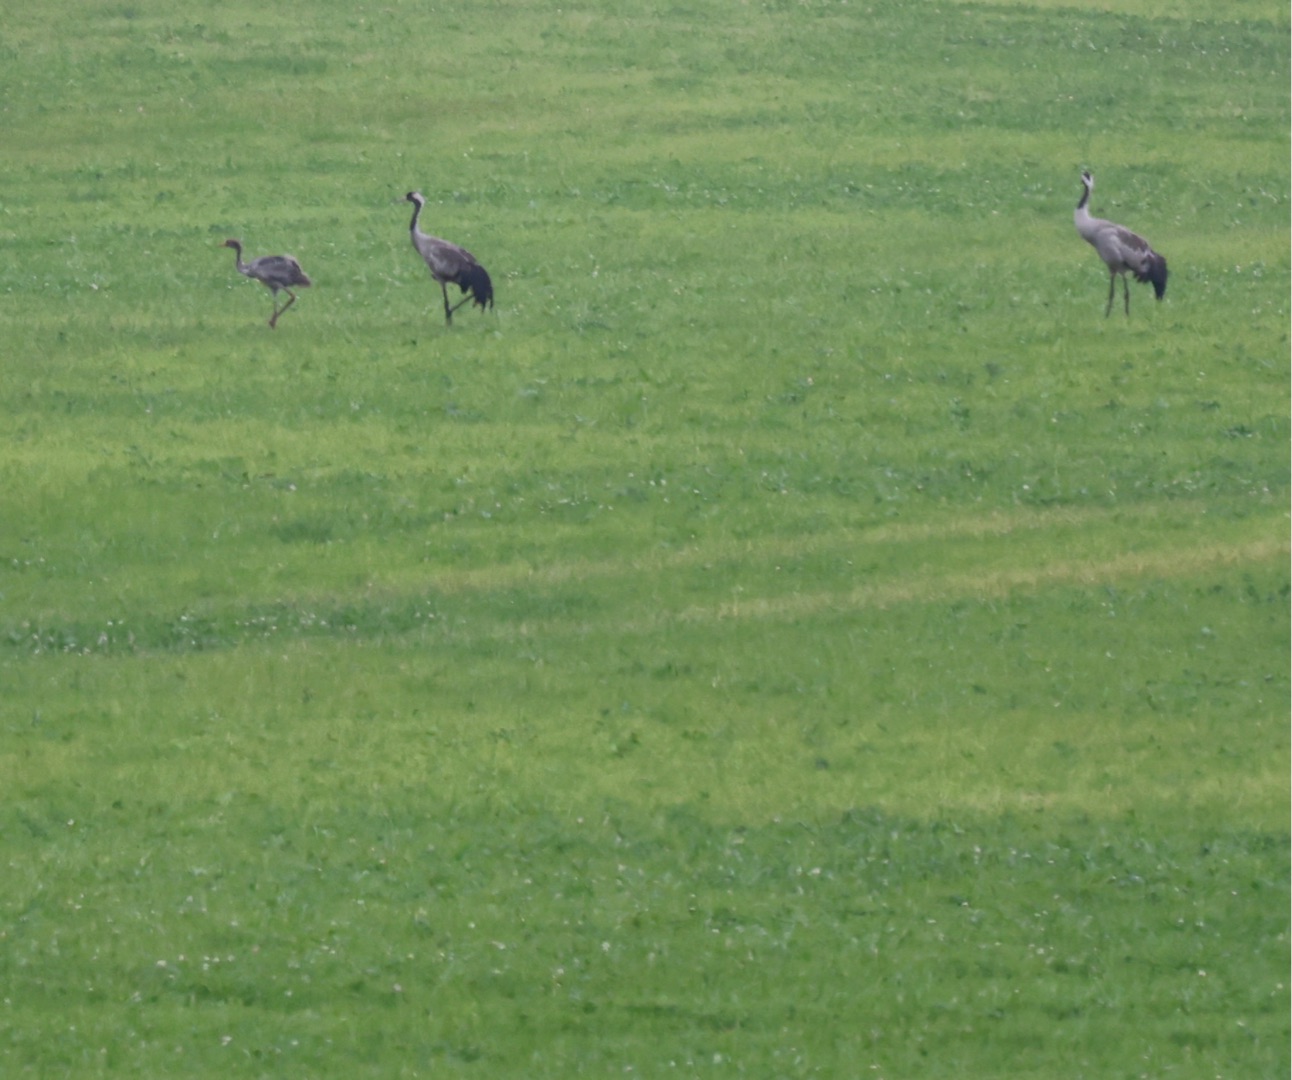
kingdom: Animalia
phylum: Chordata
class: Aves
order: Gruiformes
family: Gruidae
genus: Grus
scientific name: Grus grus
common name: Trane
